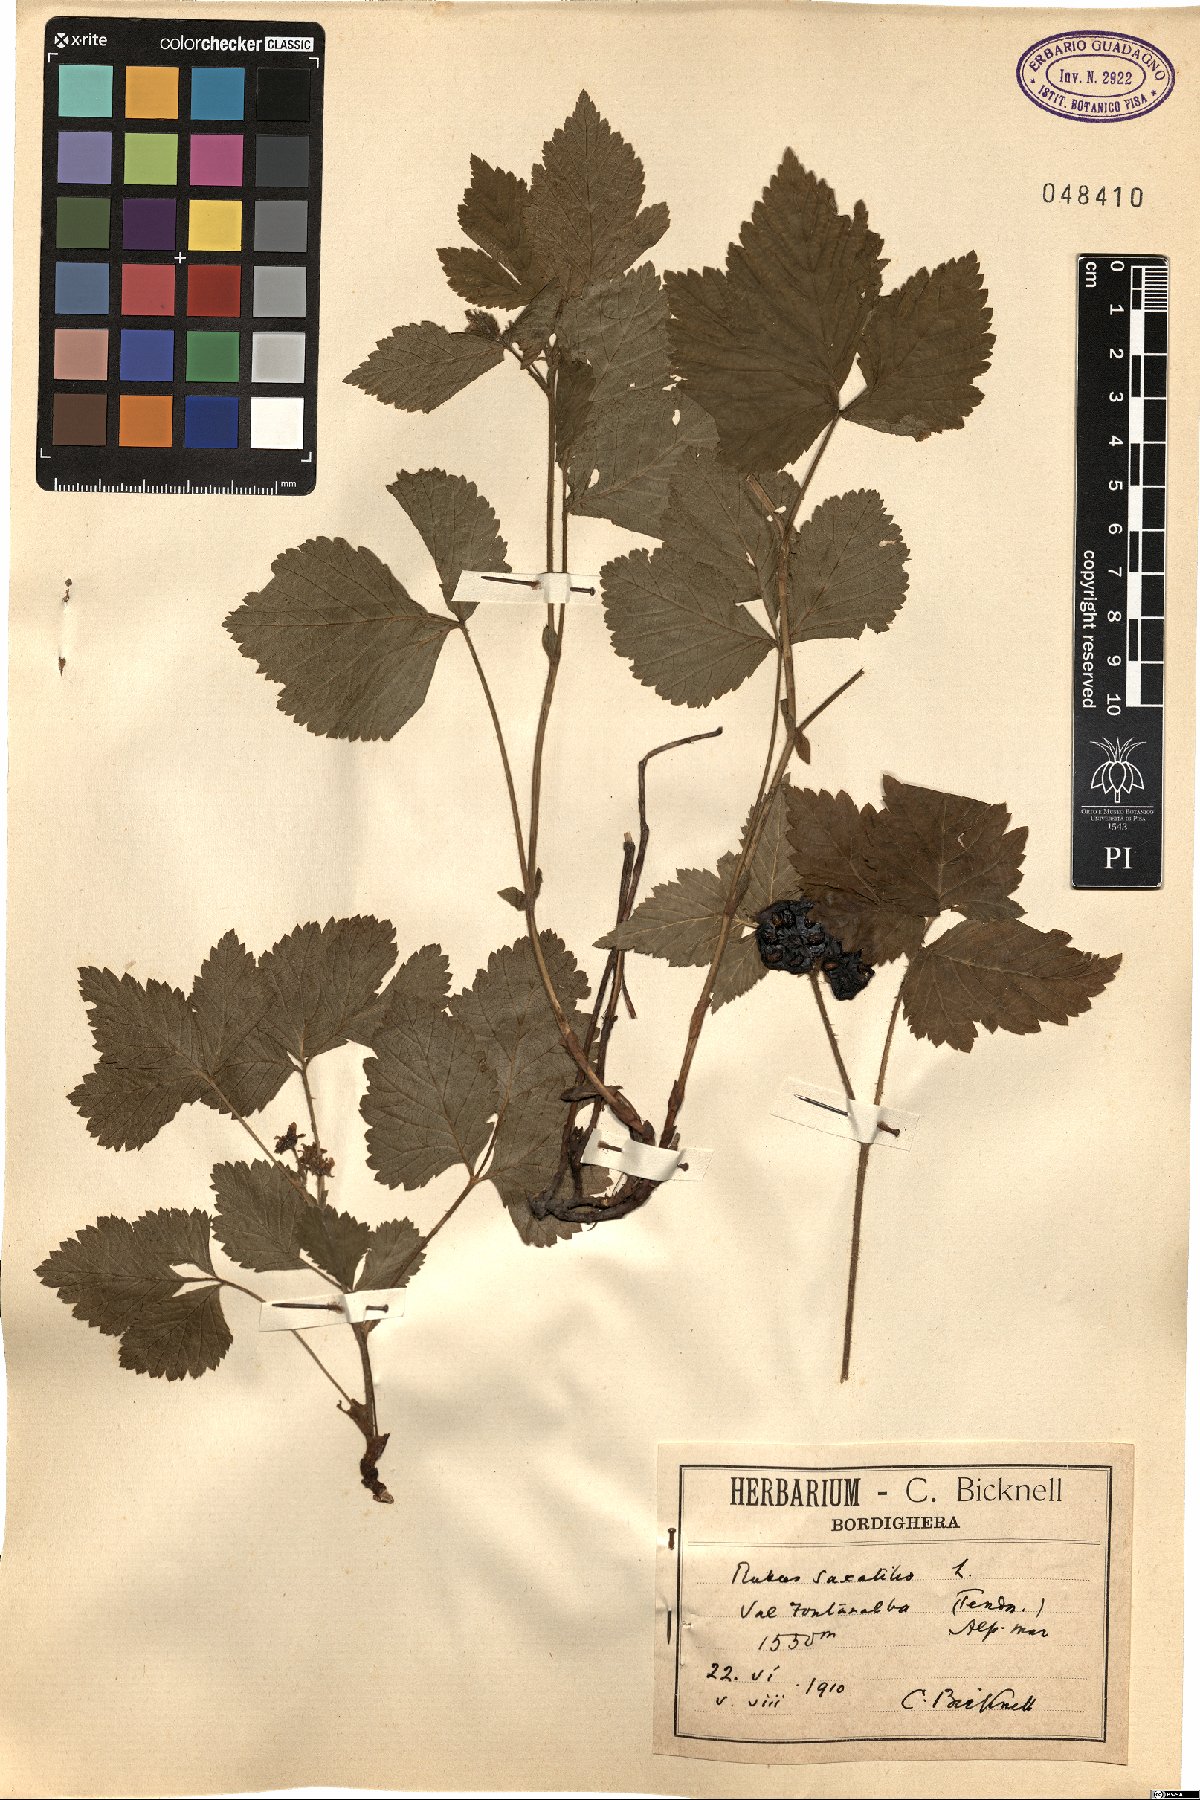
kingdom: Plantae
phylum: Tracheophyta
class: Magnoliopsida
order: Rosales
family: Rosaceae
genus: Rubus
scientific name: Rubus saxatilis
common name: Stone bramble
